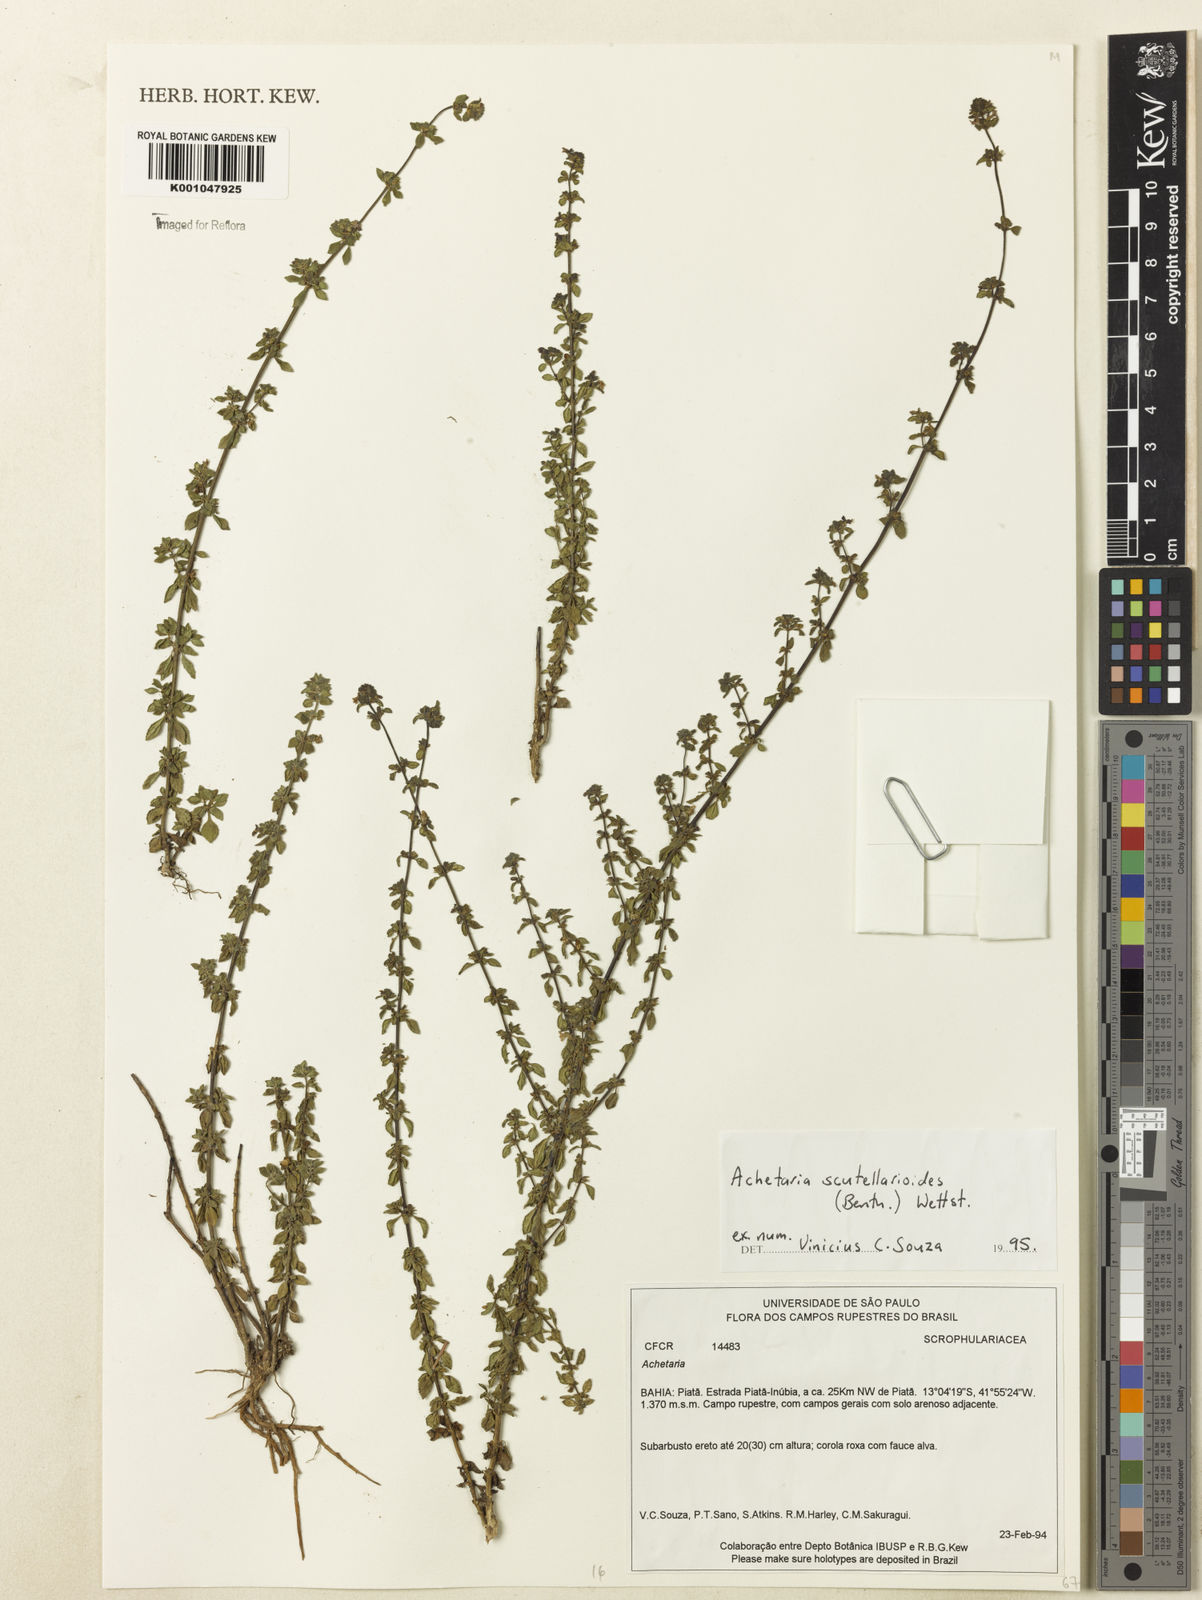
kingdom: Plantae
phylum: Tracheophyta
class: Magnoliopsida
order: Lamiales
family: Plantaginaceae
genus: Matourea
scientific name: Matourea scutellarioides
